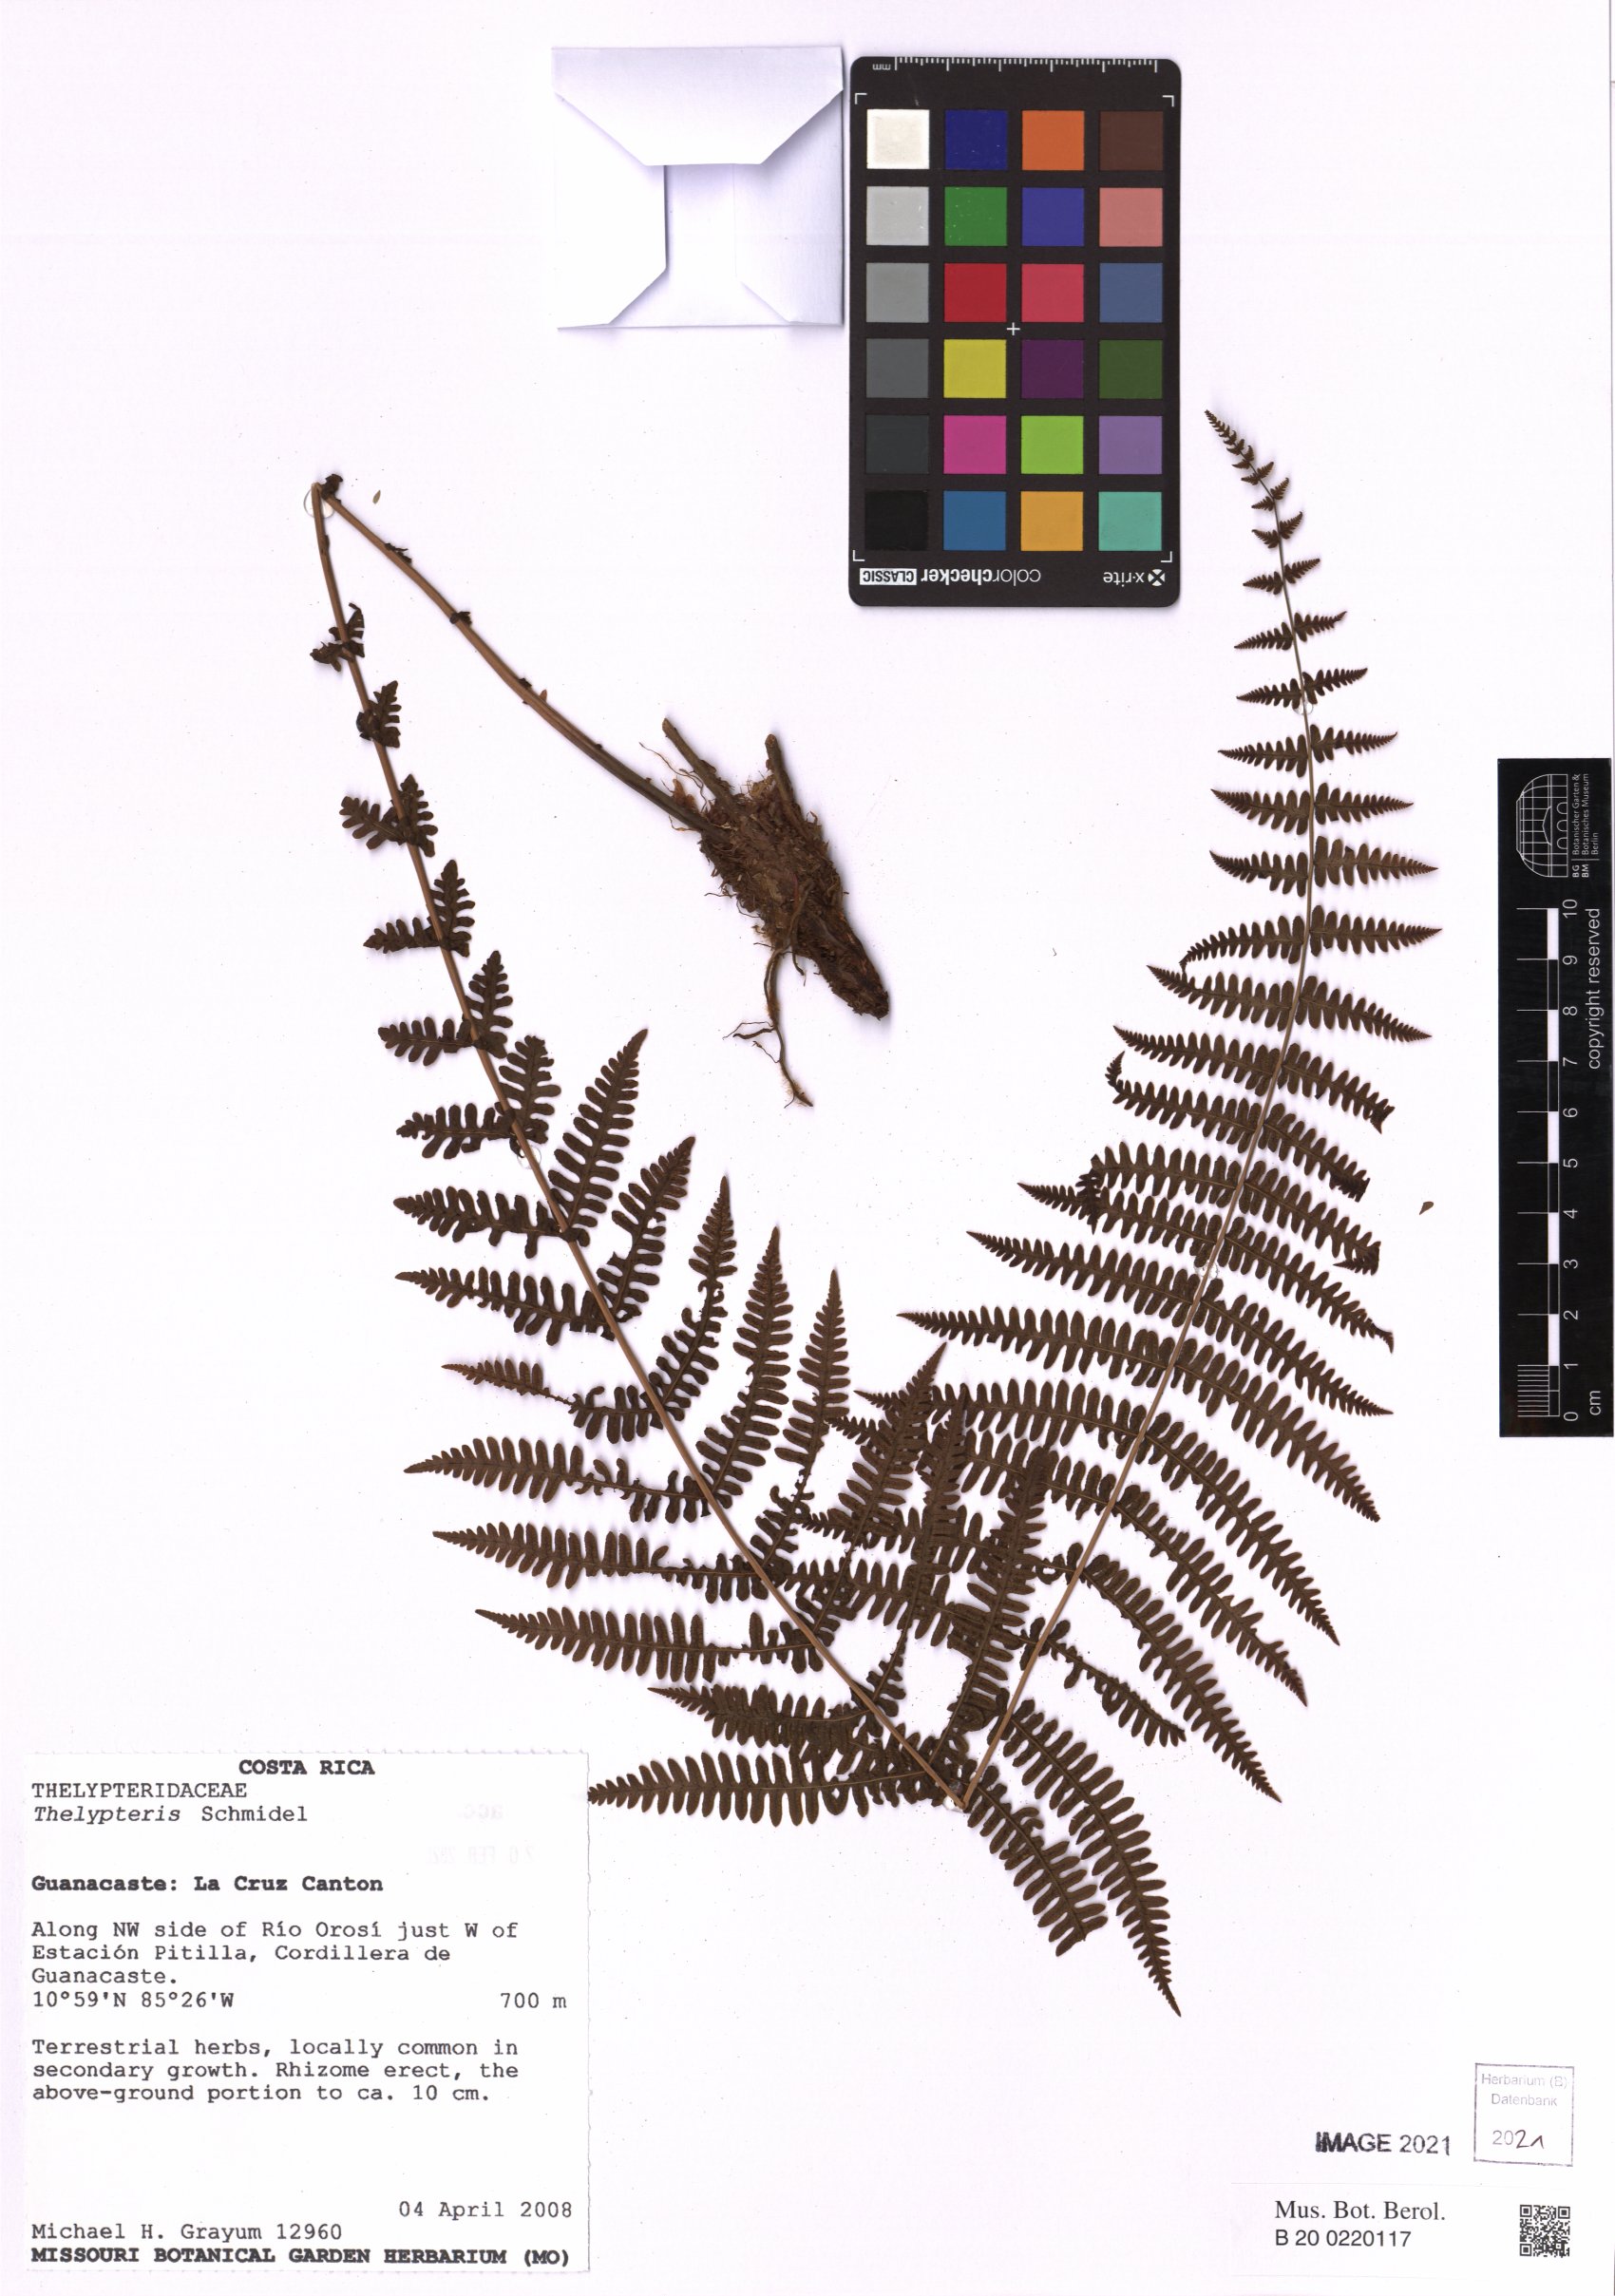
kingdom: Plantae
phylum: Tracheophyta
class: Polypodiopsida
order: Polypodiales
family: Thelypteridaceae
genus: Thelypteris
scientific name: Thelypteris
